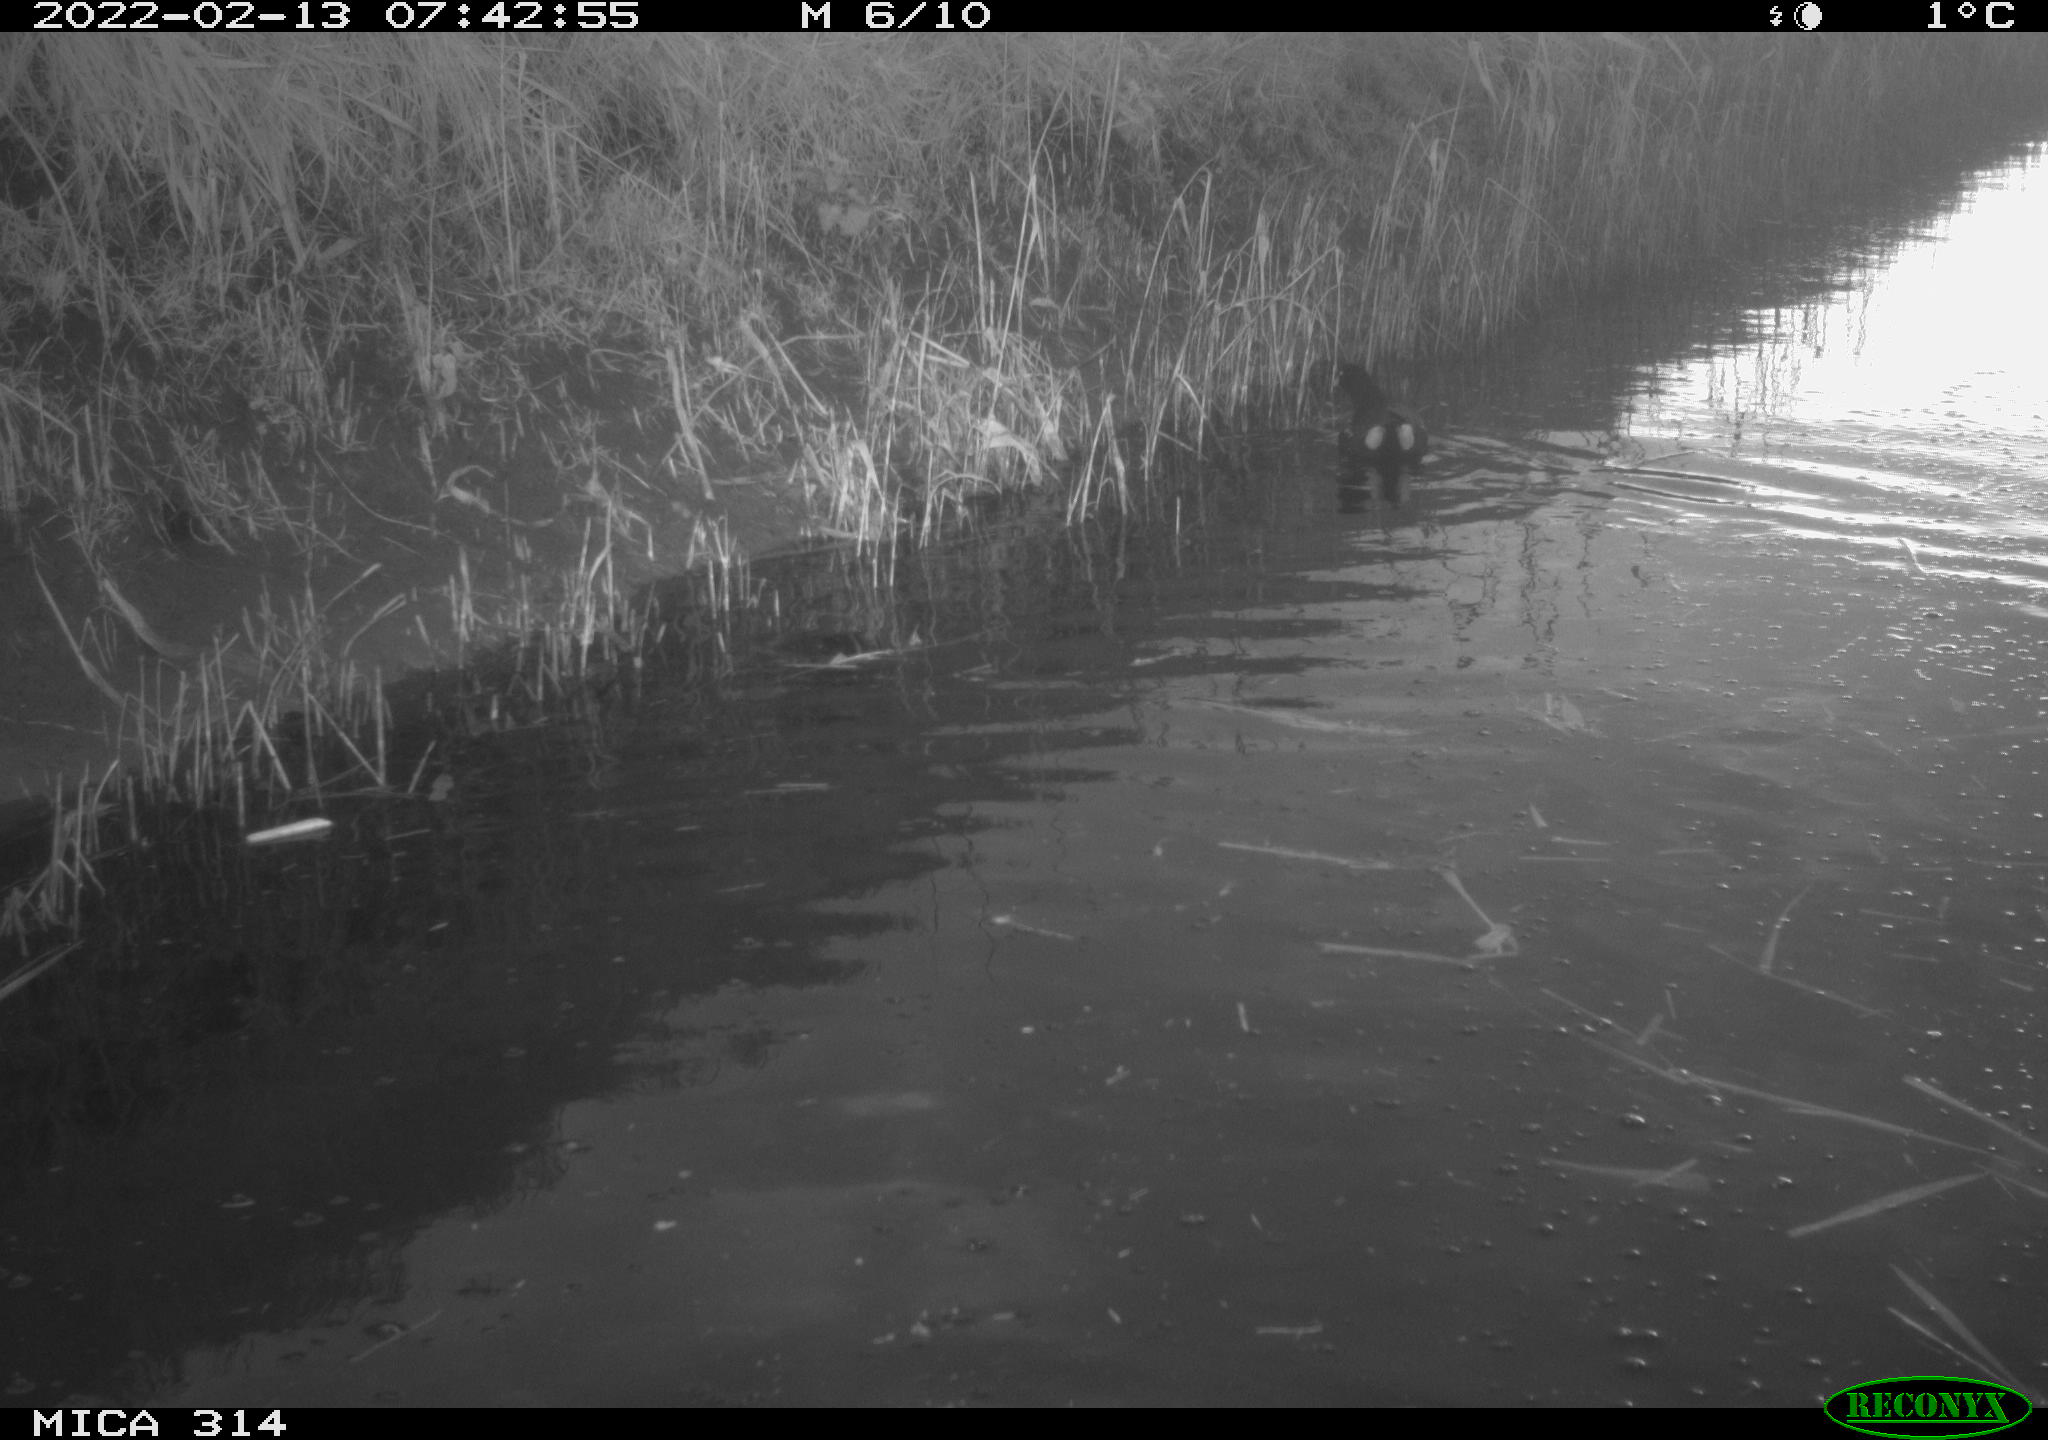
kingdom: Animalia
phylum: Chordata
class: Aves
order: Gruiformes
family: Rallidae
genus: Gallinula
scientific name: Gallinula chloropus
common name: Common moorhen
